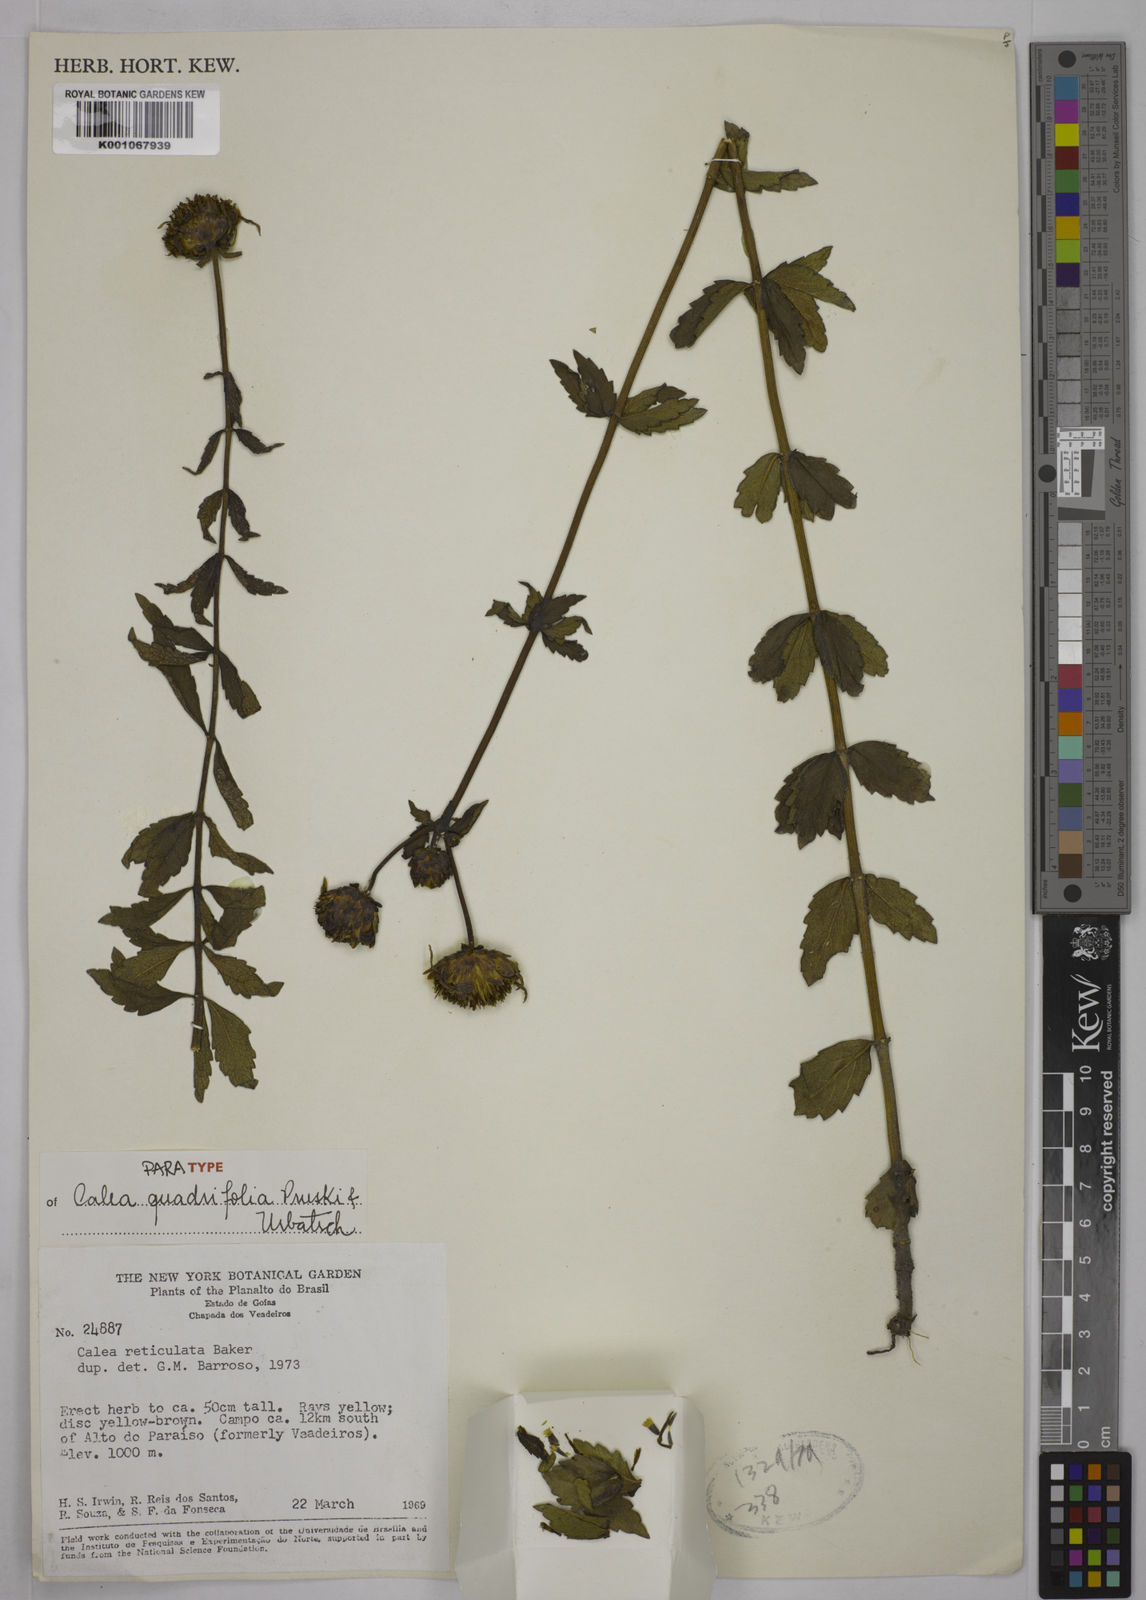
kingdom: Plantae
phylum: Tracheophyta
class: Magnoliopsida
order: Asterales
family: Asteraceae
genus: Calea
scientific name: Calea quadrifolia
